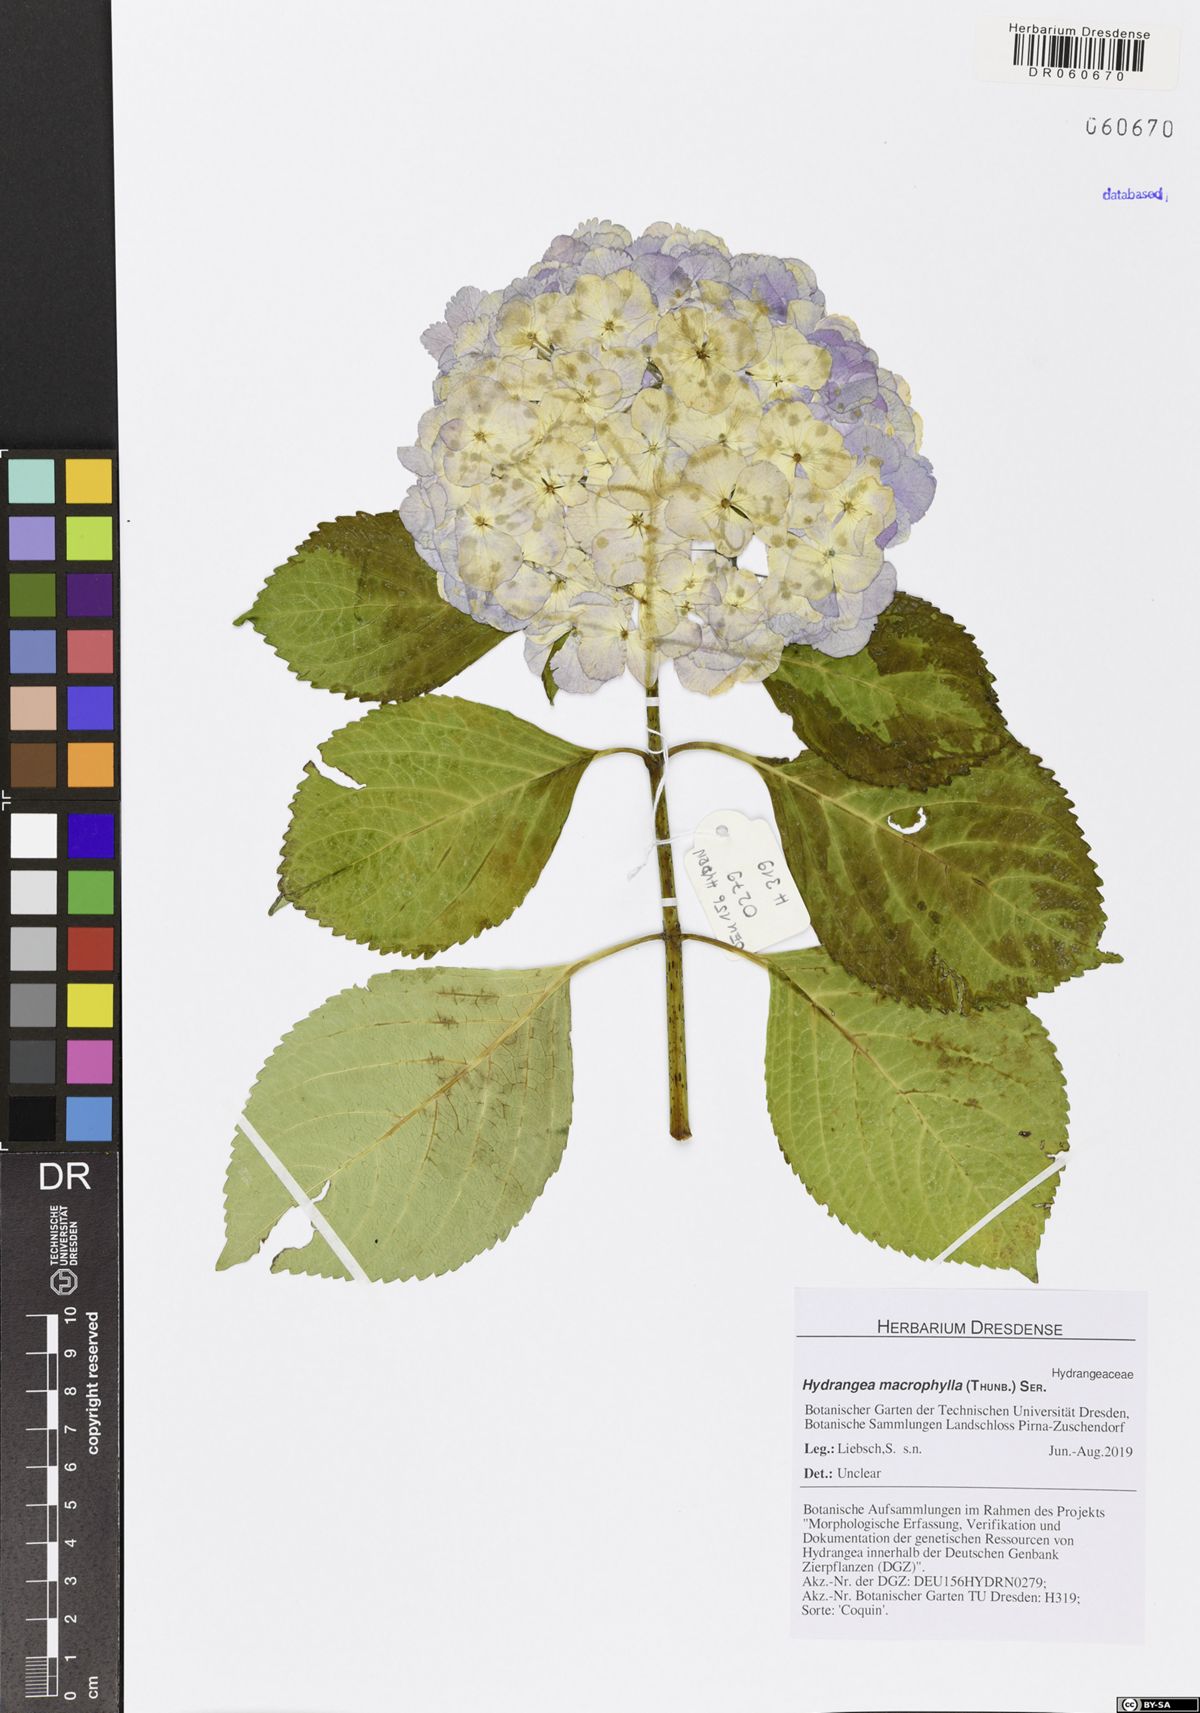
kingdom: Plantae
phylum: Tracheophyta
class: Magnoliopsida
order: Cornales
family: Hydrangeaceae
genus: Hydrangea
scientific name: Hydrangea macrophylla
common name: Hydrangea
